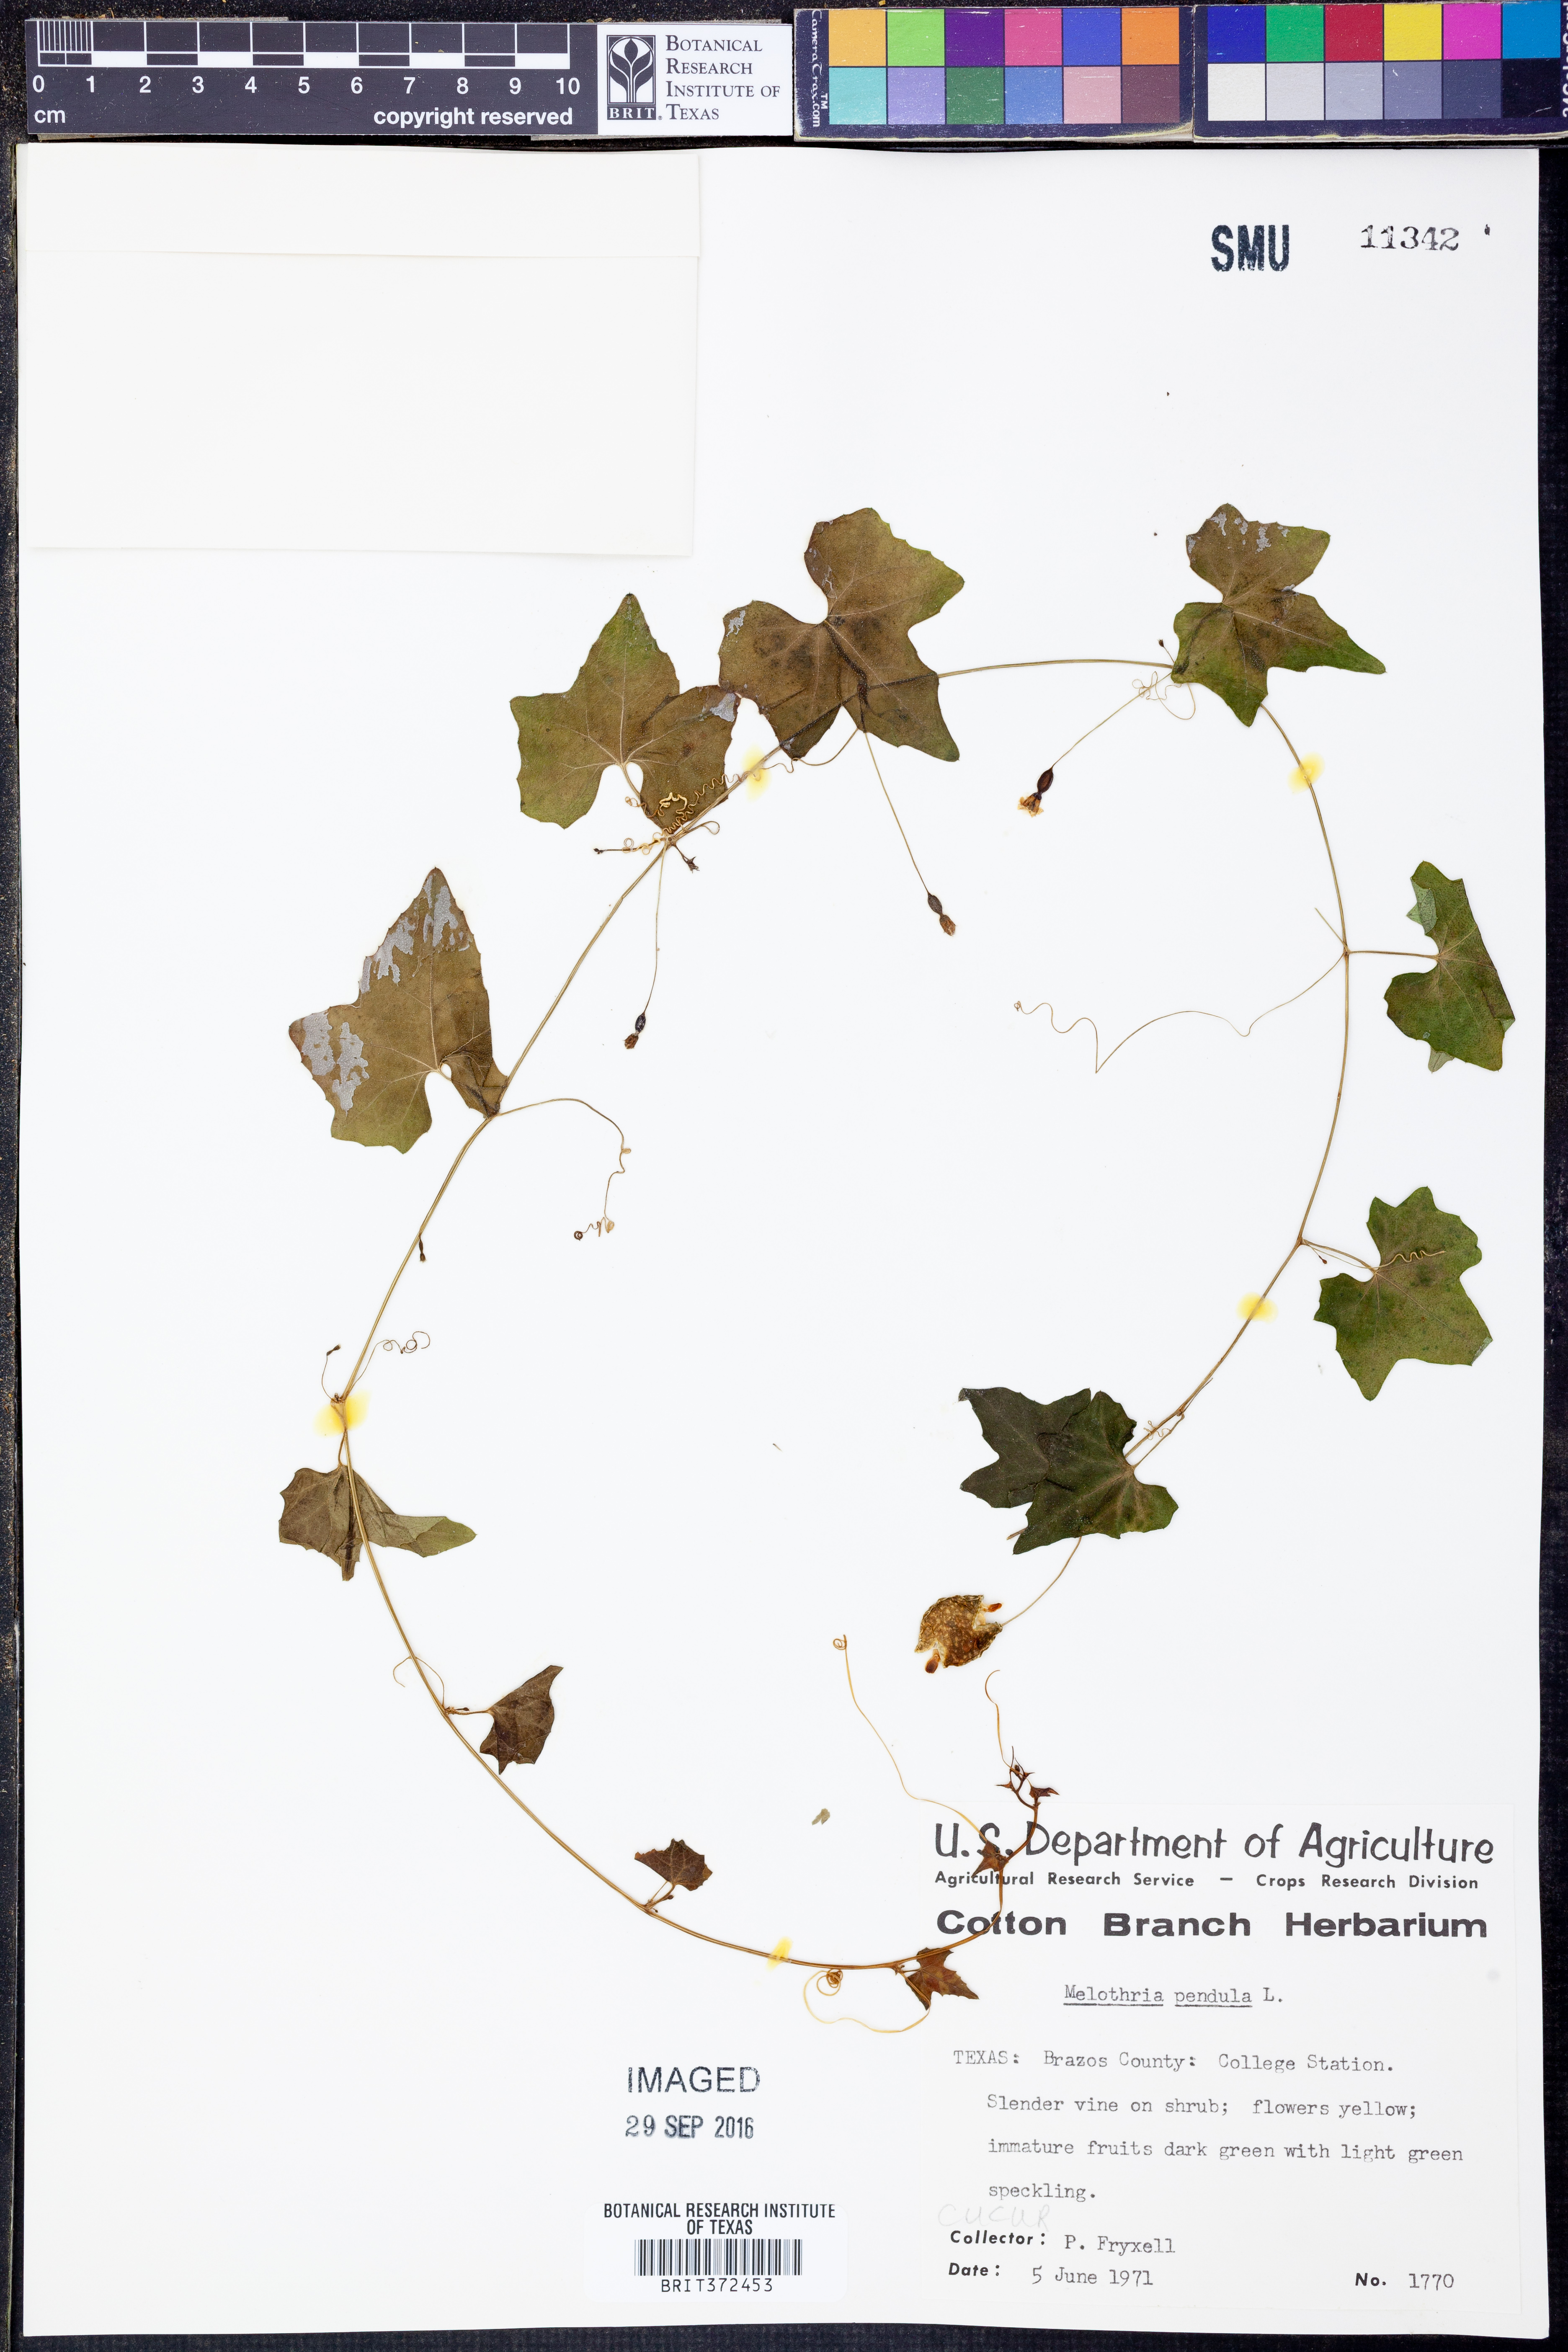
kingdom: Plantae
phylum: Tracheophyta
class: Magnoliopsida
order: Cucurbitales
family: Cucurbitaceae
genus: Melothria
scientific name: Melothria pendula
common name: Creeping-cucumber
